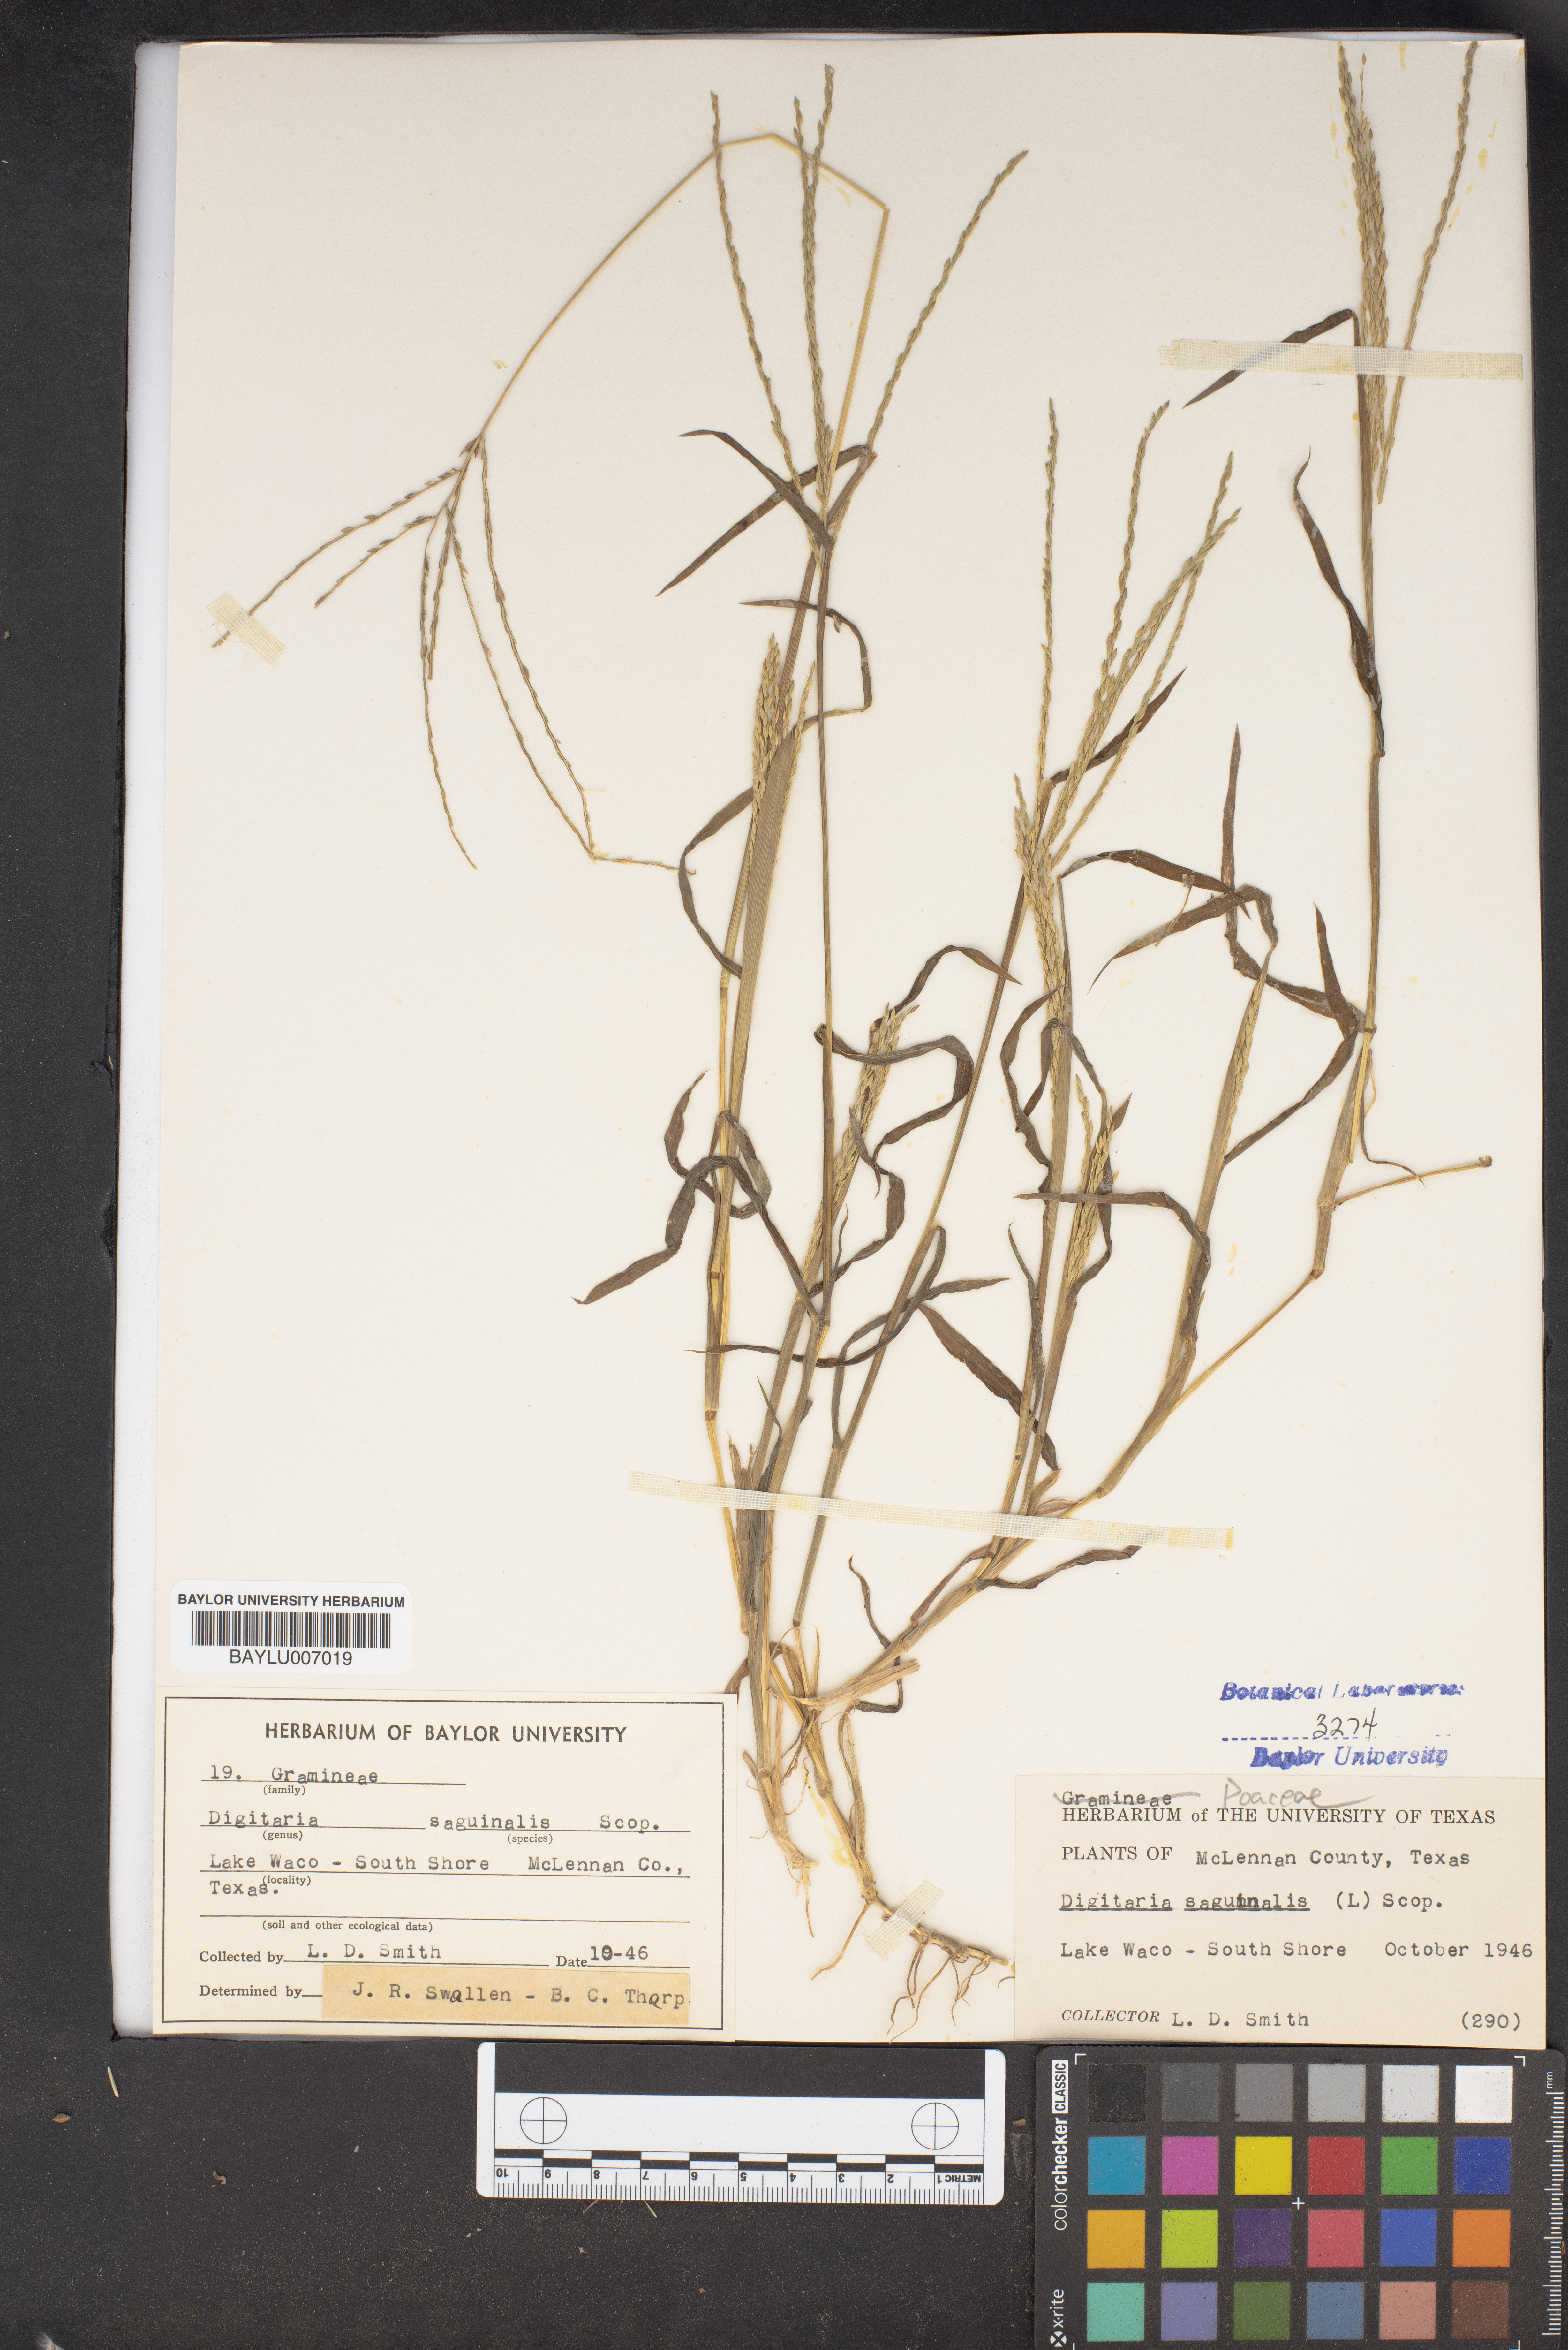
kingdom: Plantae
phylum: Tracheophyta
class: Liliopsida
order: Poales
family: Poaceae
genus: Digitaria
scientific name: Digitaria sanguinalis
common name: Hairy crabgrass
